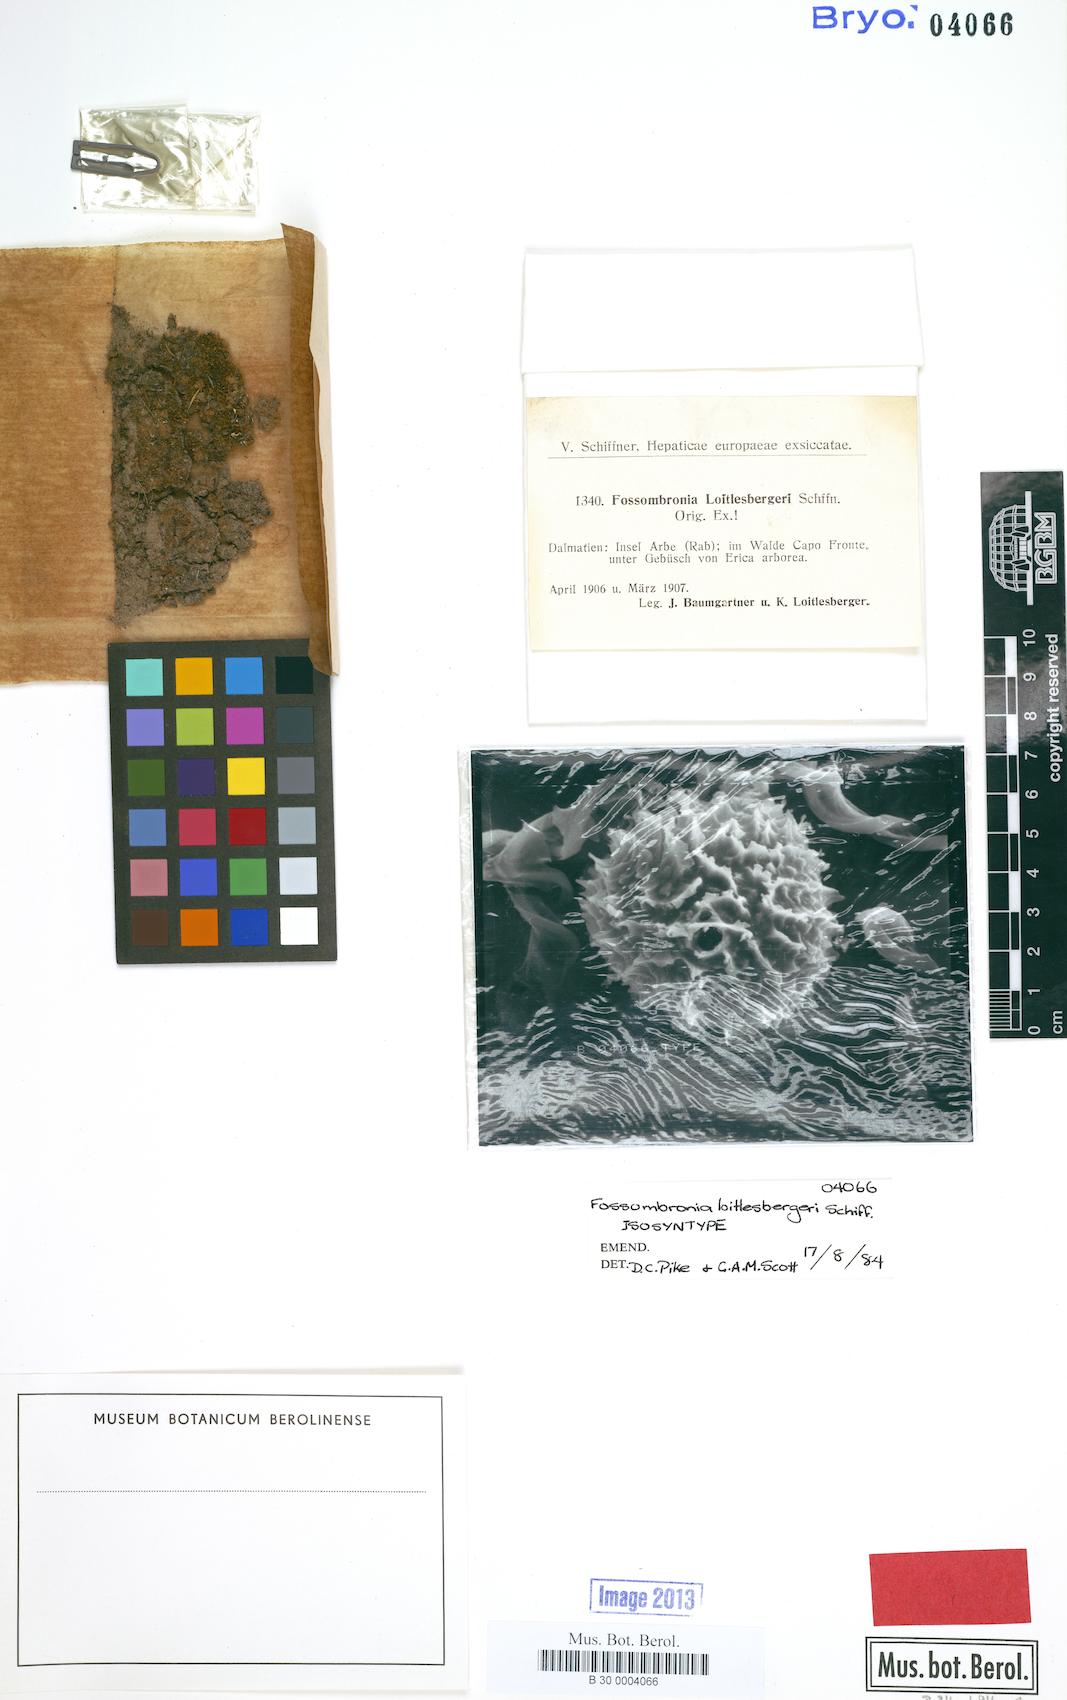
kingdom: Plantae
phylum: Marchantiophyta
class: Jungermanniopsida
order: Fossombroniales
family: Fossombroniaceae
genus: Fossombronia
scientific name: Fossombronia pusilla
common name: Common frillwort
